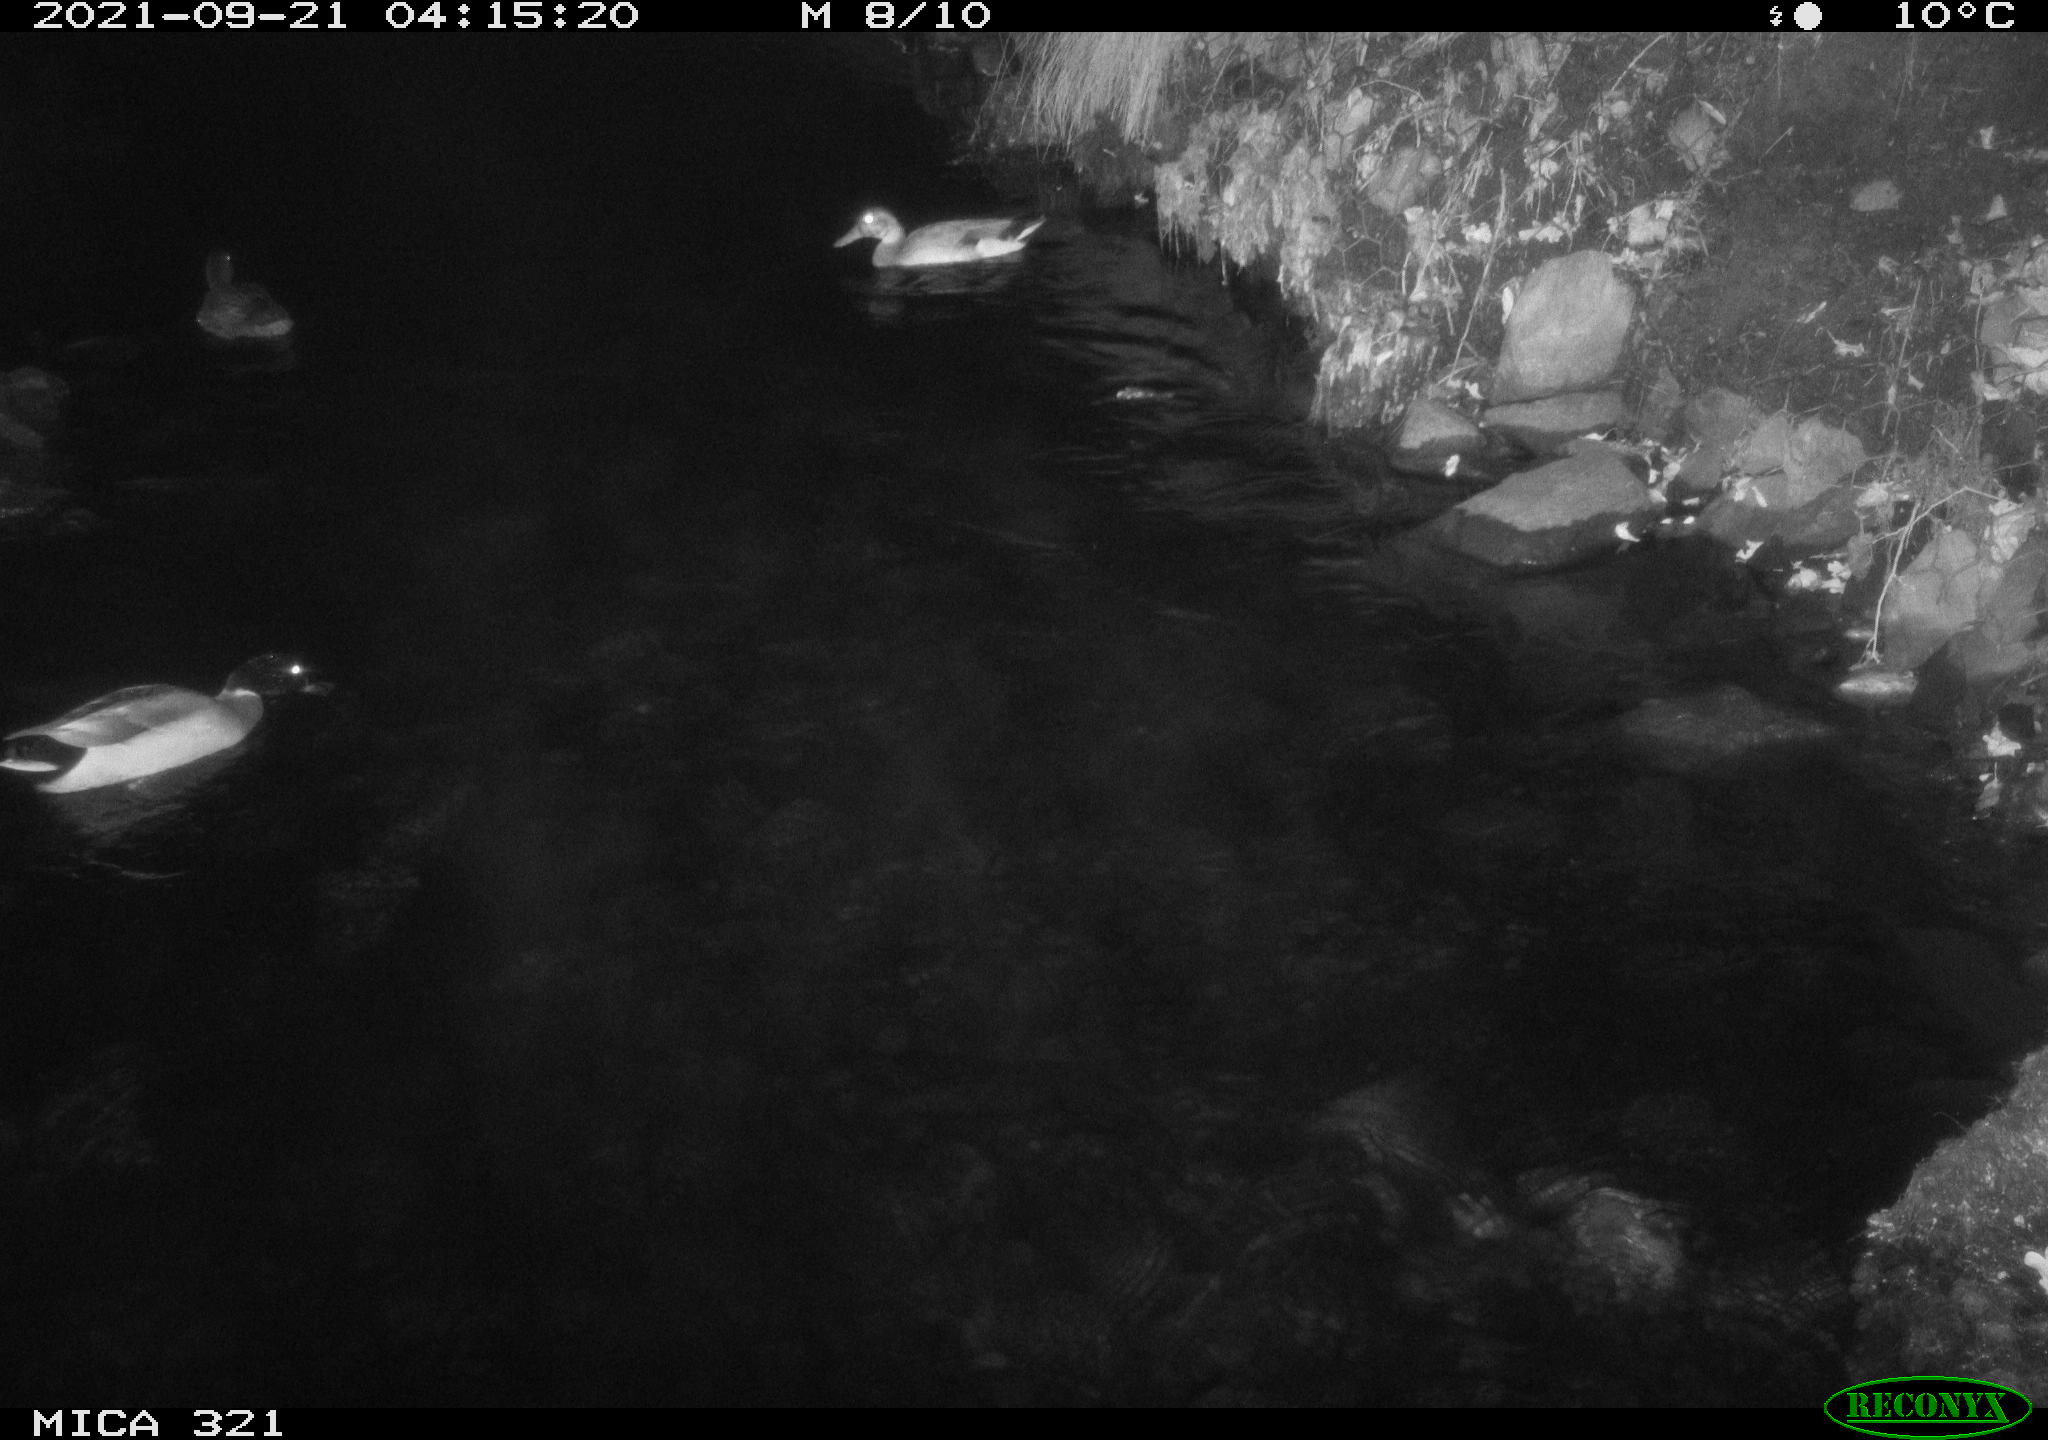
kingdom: Animalia
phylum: Chordata
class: Aves
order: Anseriformes
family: Anatidae
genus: Anas
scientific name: Anas platyrhynchos
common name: Mallard
